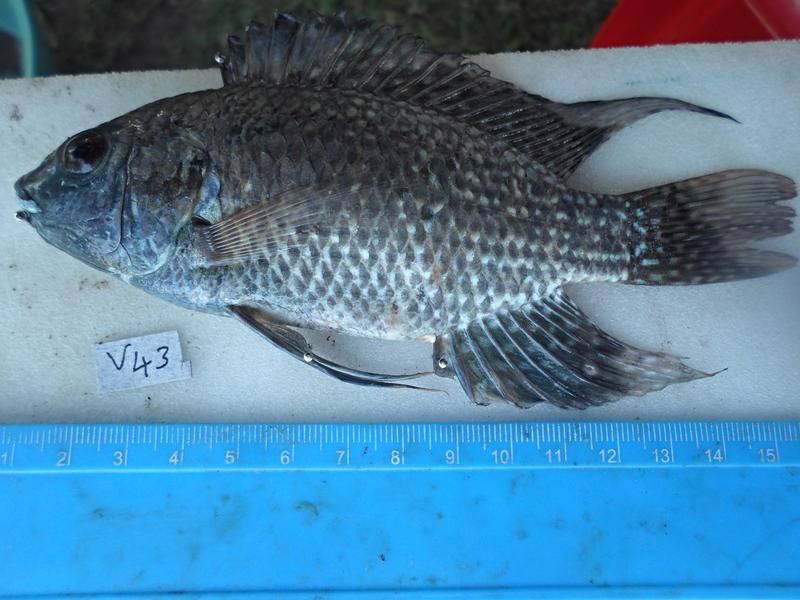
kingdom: Animalia
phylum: Chordata
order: Perciformes
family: Cichlidae
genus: Oreochromis
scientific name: Oreochromis leucostictus
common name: Blue spotted tilapia
